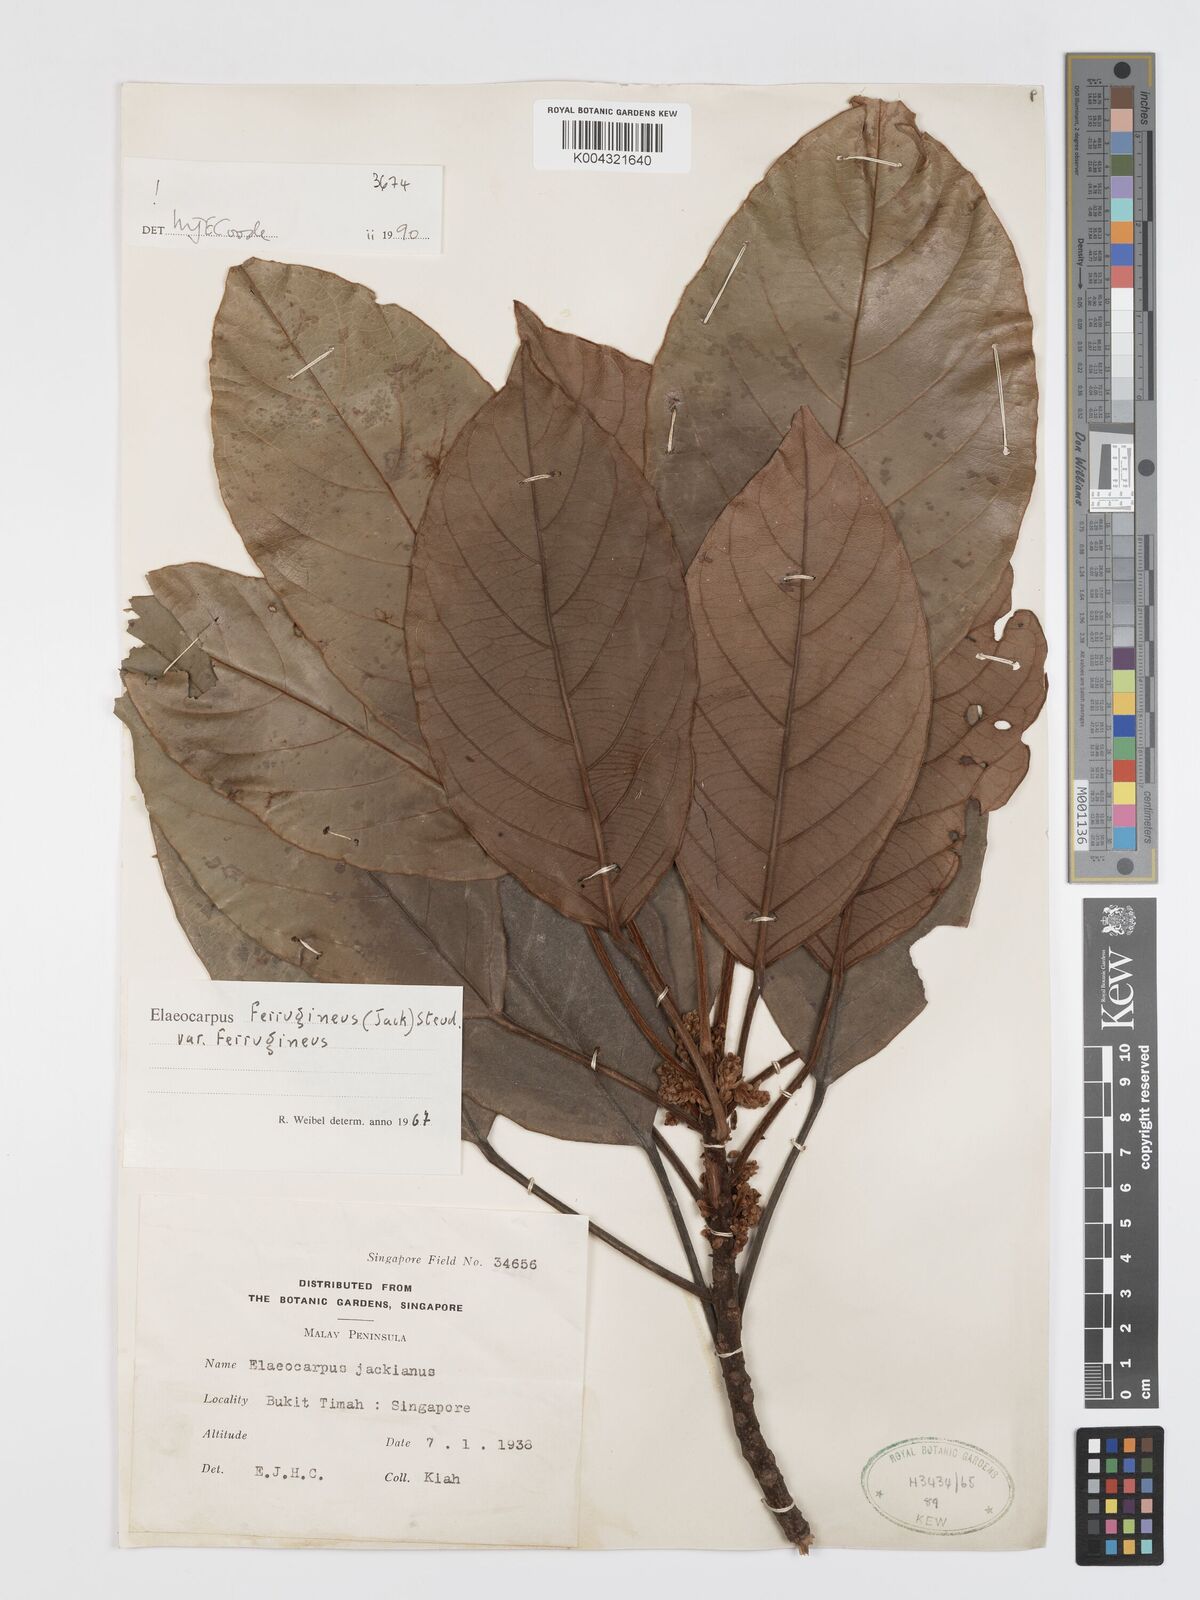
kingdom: Plantae
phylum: Tracheophyta
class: Magnoliopsida
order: Oxalidales
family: Elaeocarpaceae
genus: Elaeocarpus
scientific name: Elaeocarpus ferrugineus
